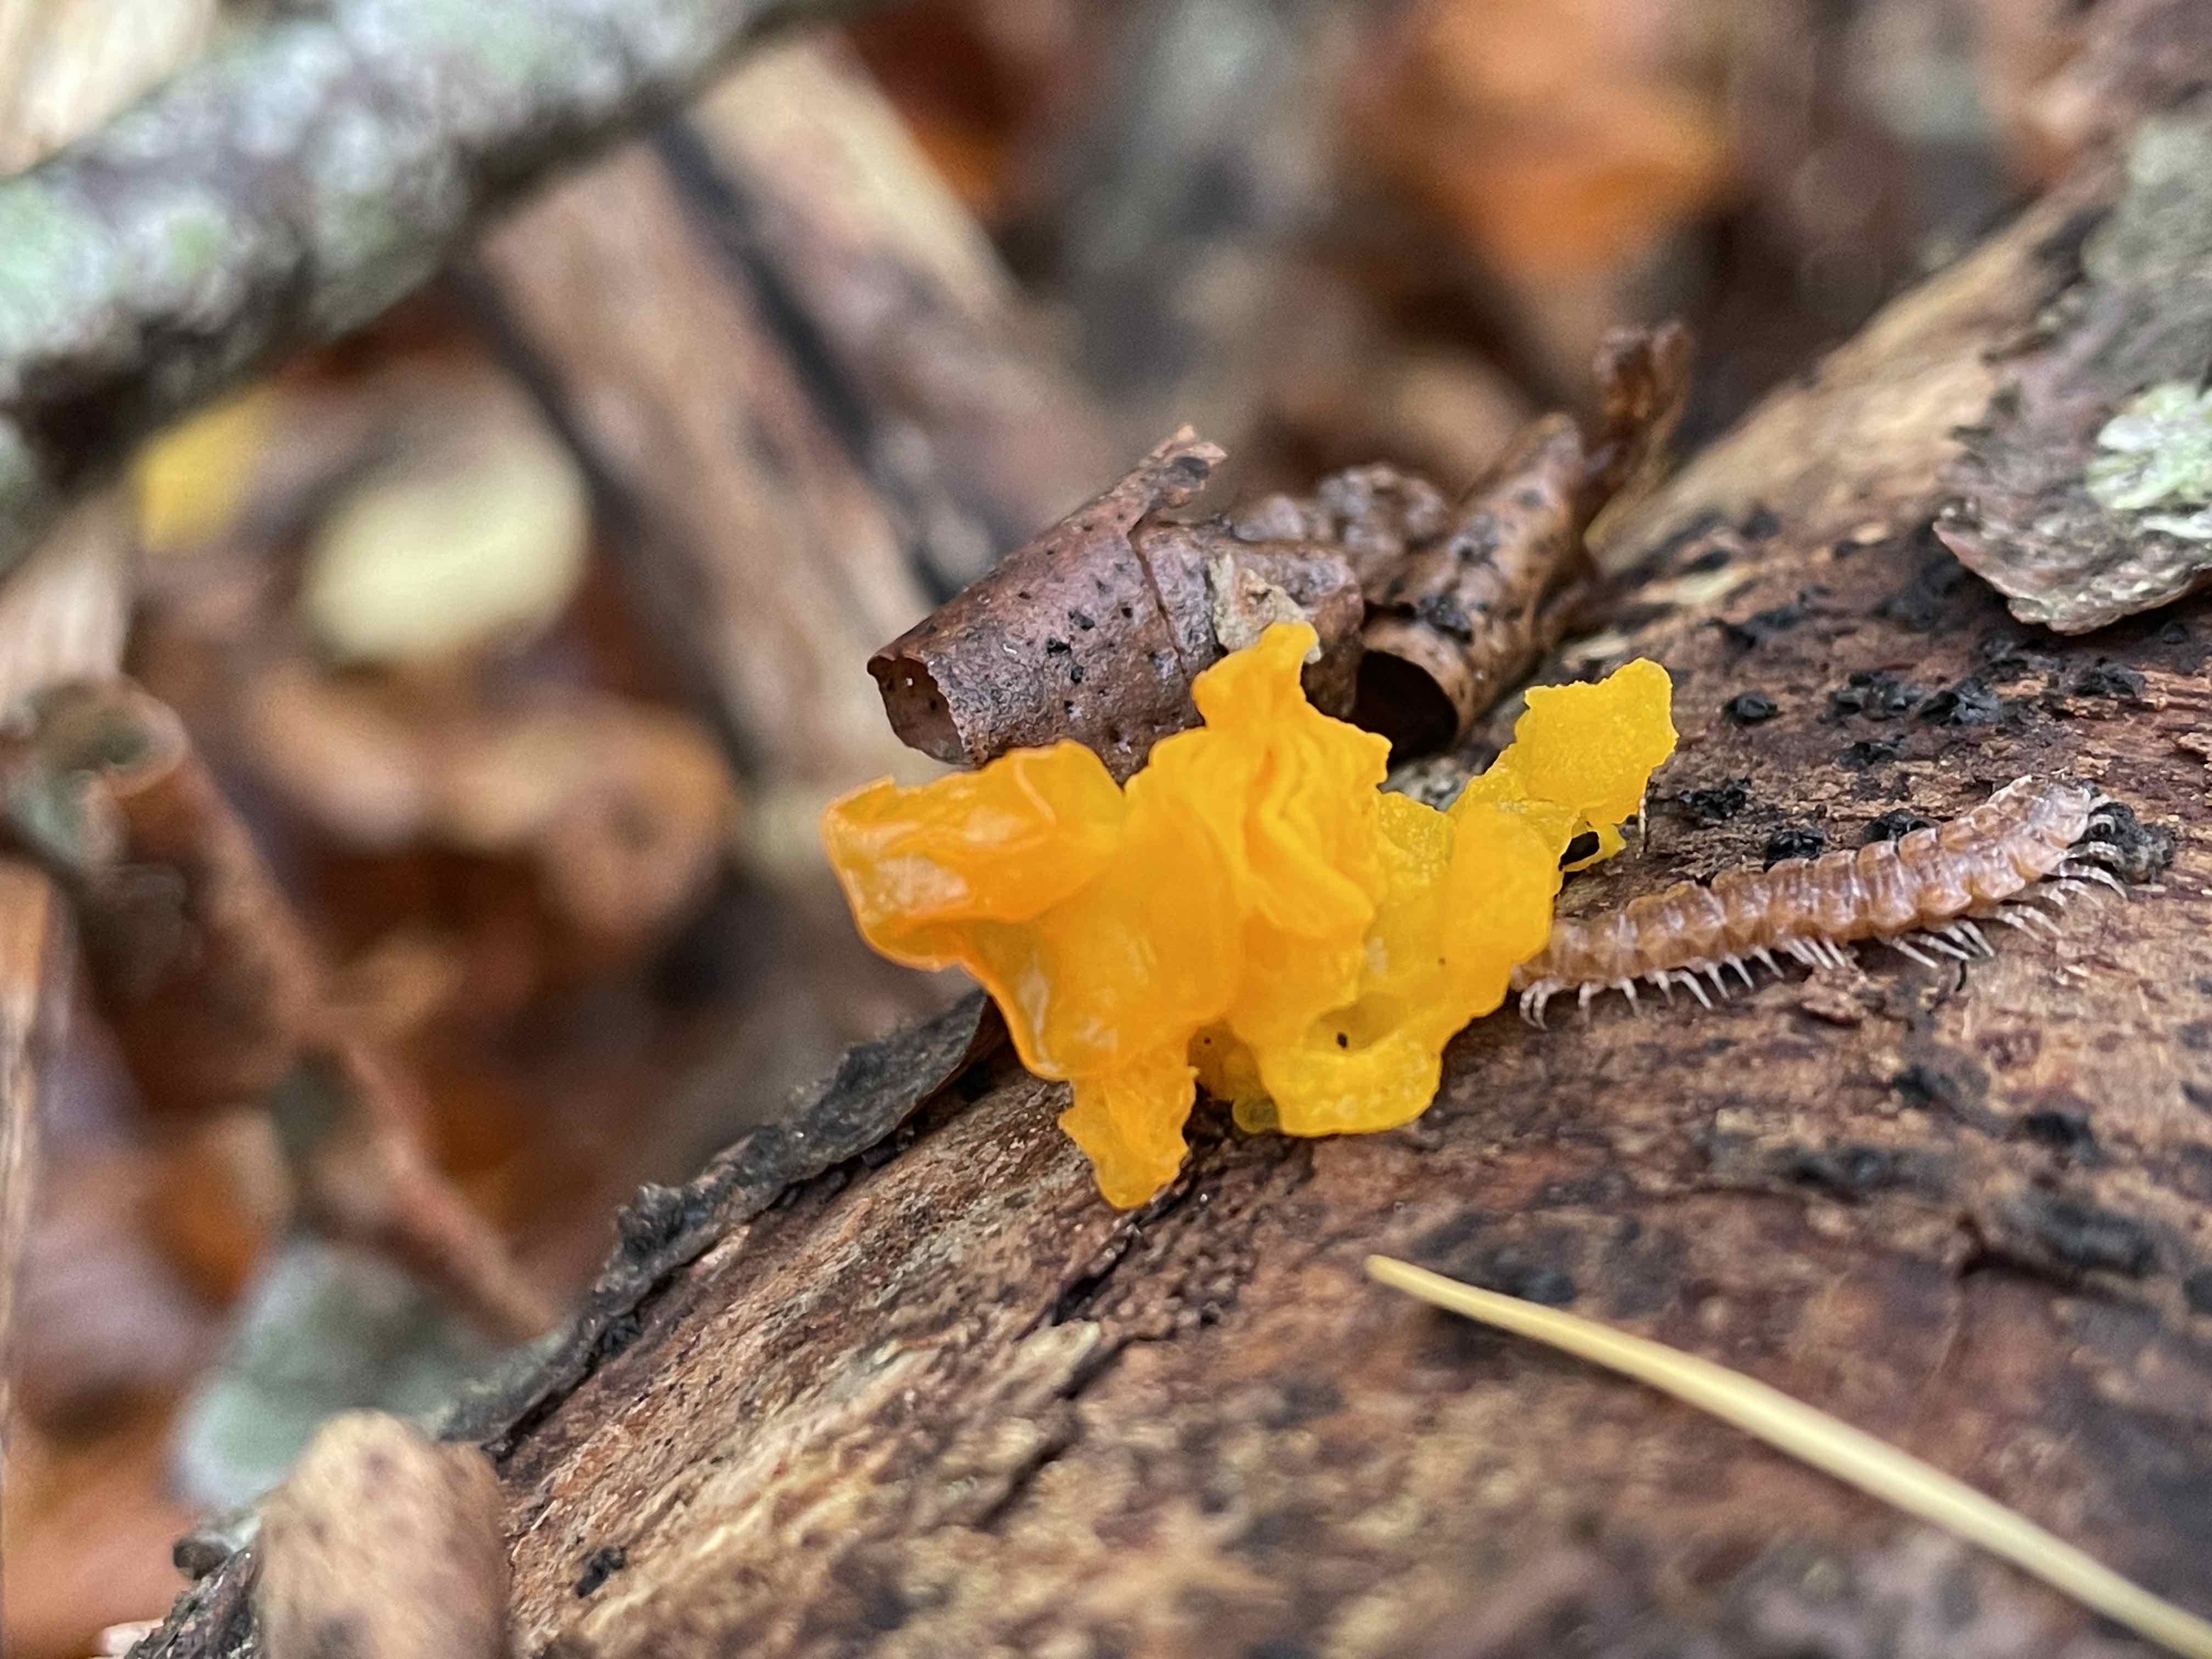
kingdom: Fungi
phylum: Basidiomycota
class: Tremellomycetes
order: Tremellales
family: Tremellaceae
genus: Tremella
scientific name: Tremella mesenterica
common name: gul bævresvamp
